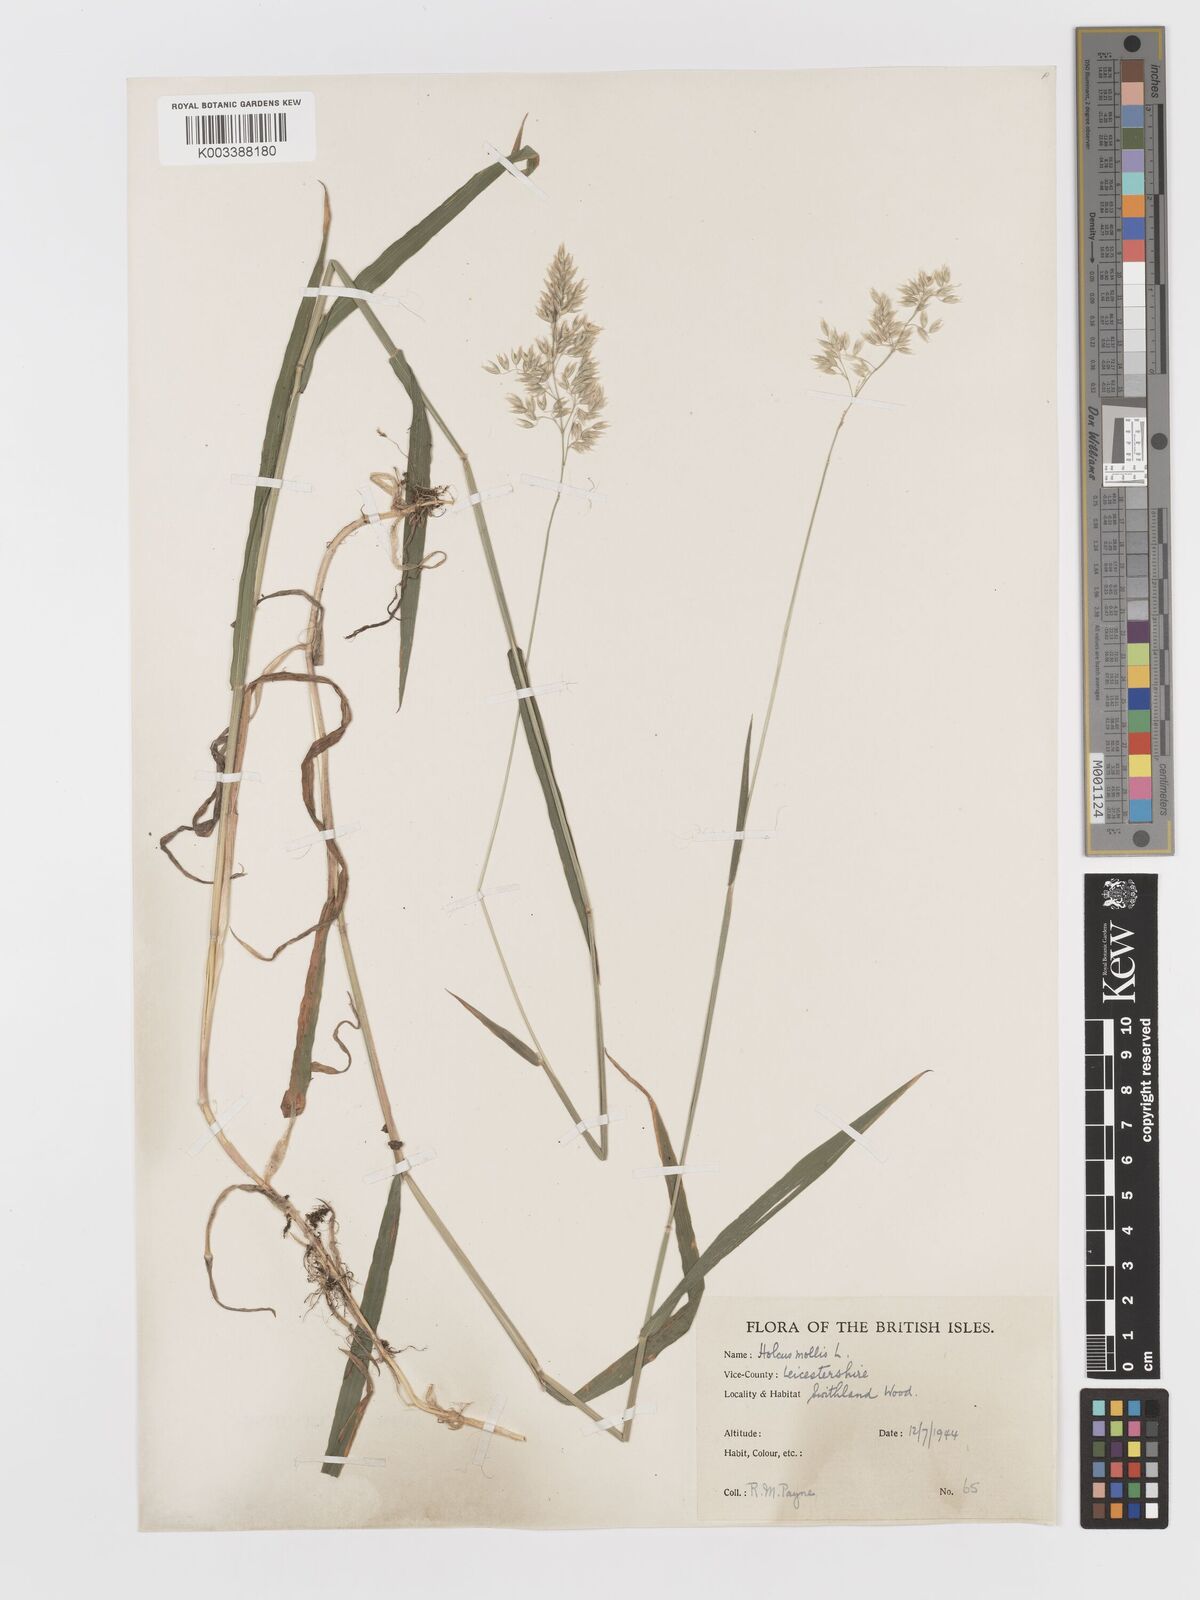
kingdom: Plantae
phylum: Tracheophyta
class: Liliopsida
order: Poales
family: Poaceae
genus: Holcus
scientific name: Holcus mollis
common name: Creeping velvetgrass
